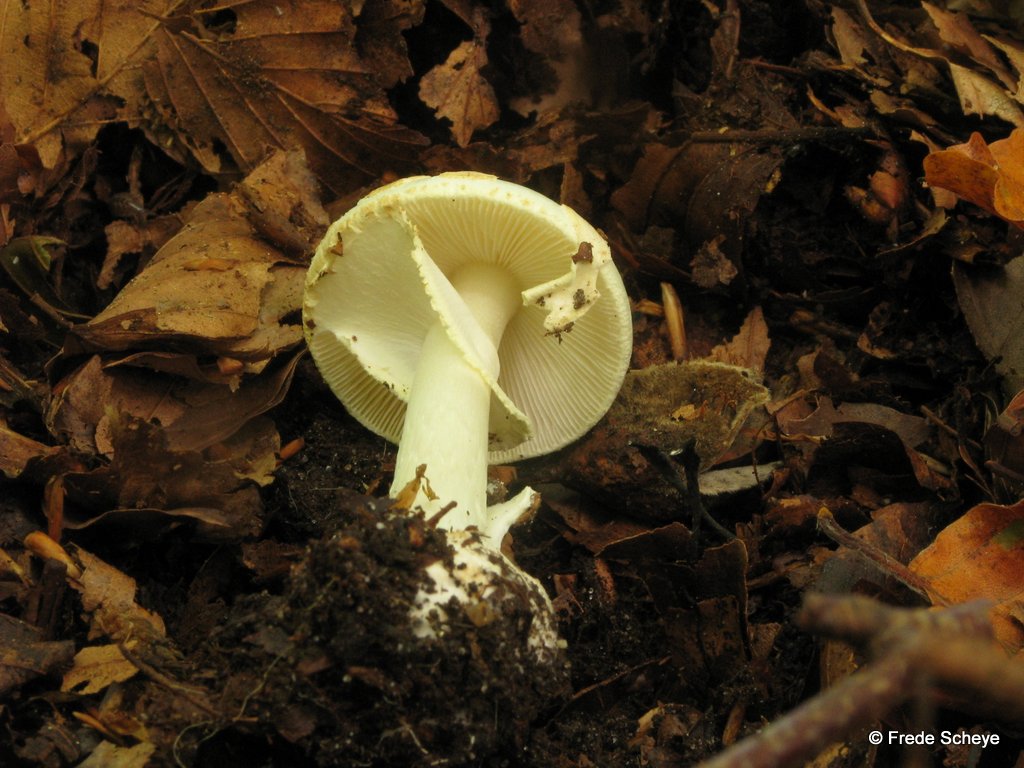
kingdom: Fungi
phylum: Basidiomycota
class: Agaricomycetes
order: Agaricales
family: Amanitaceae
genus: Amanita
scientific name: Amanita citrina
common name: kugleknoldet fluesvamp
